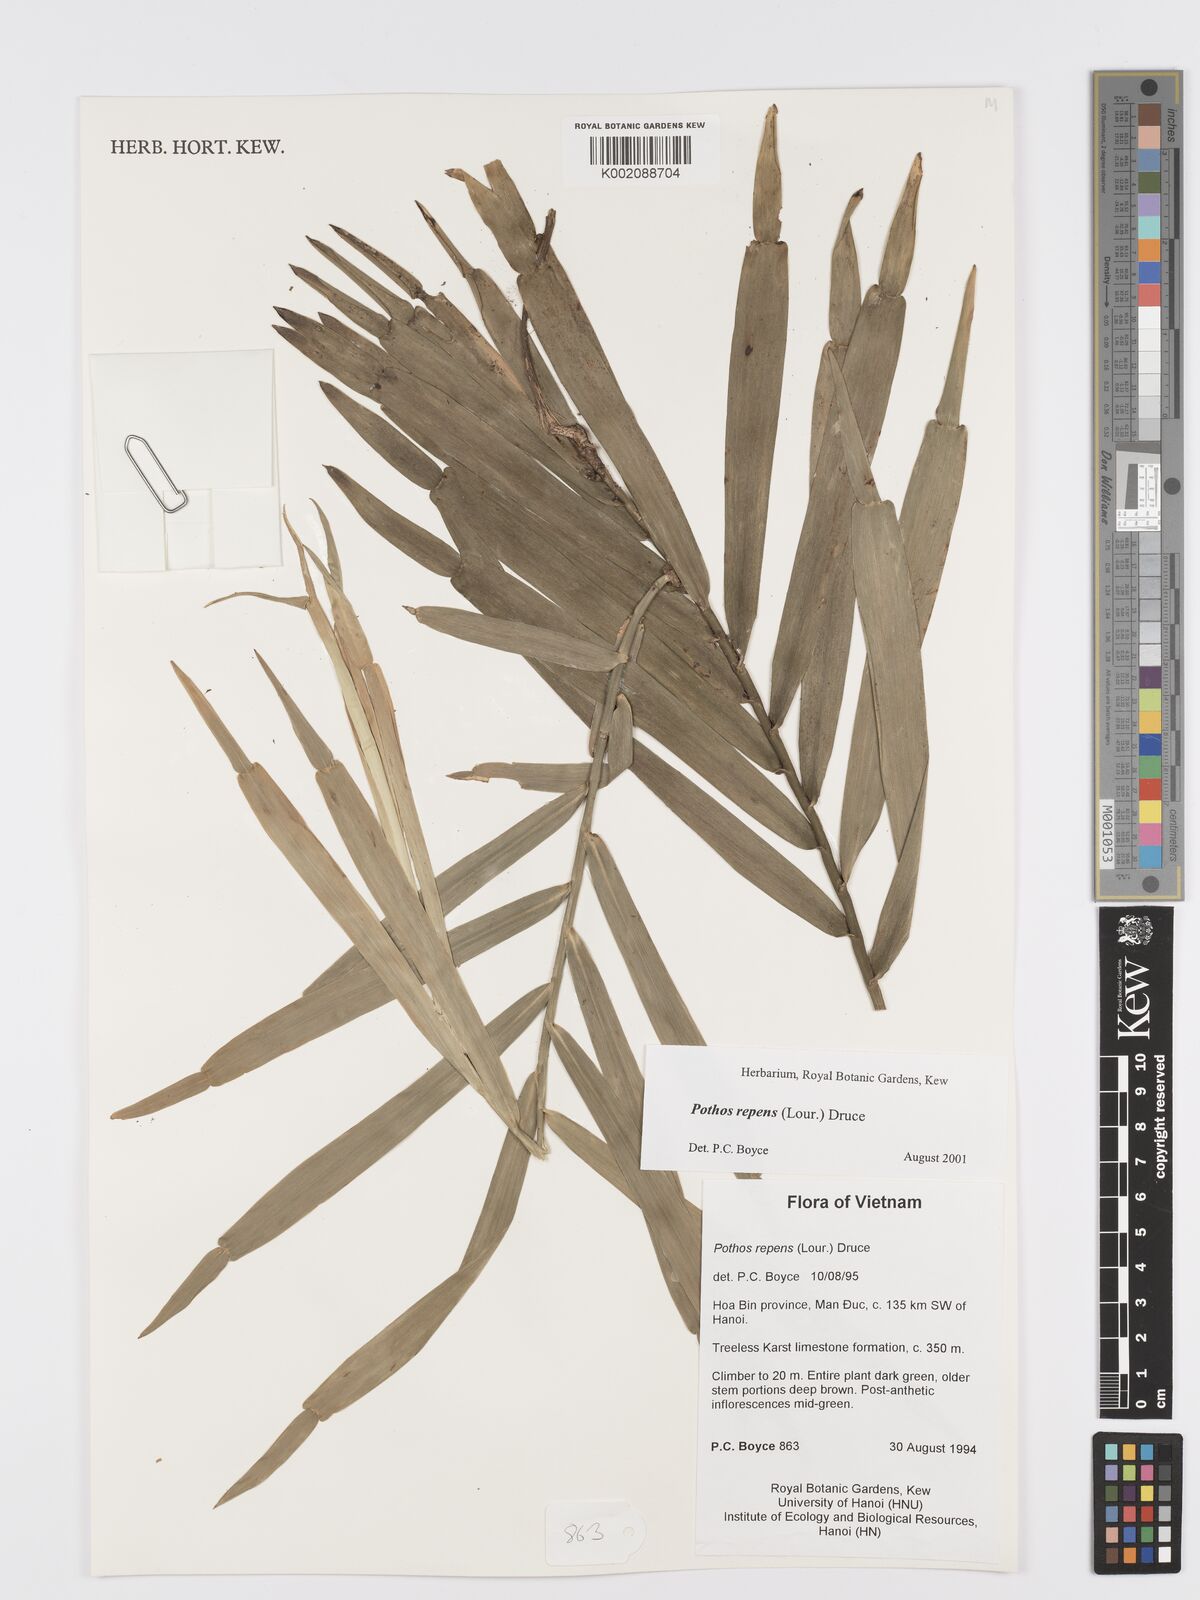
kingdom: Plantae
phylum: Tracheophyta
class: Liliopsida
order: Alismatales
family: Araceae
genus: Pothos
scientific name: Pothos repens
